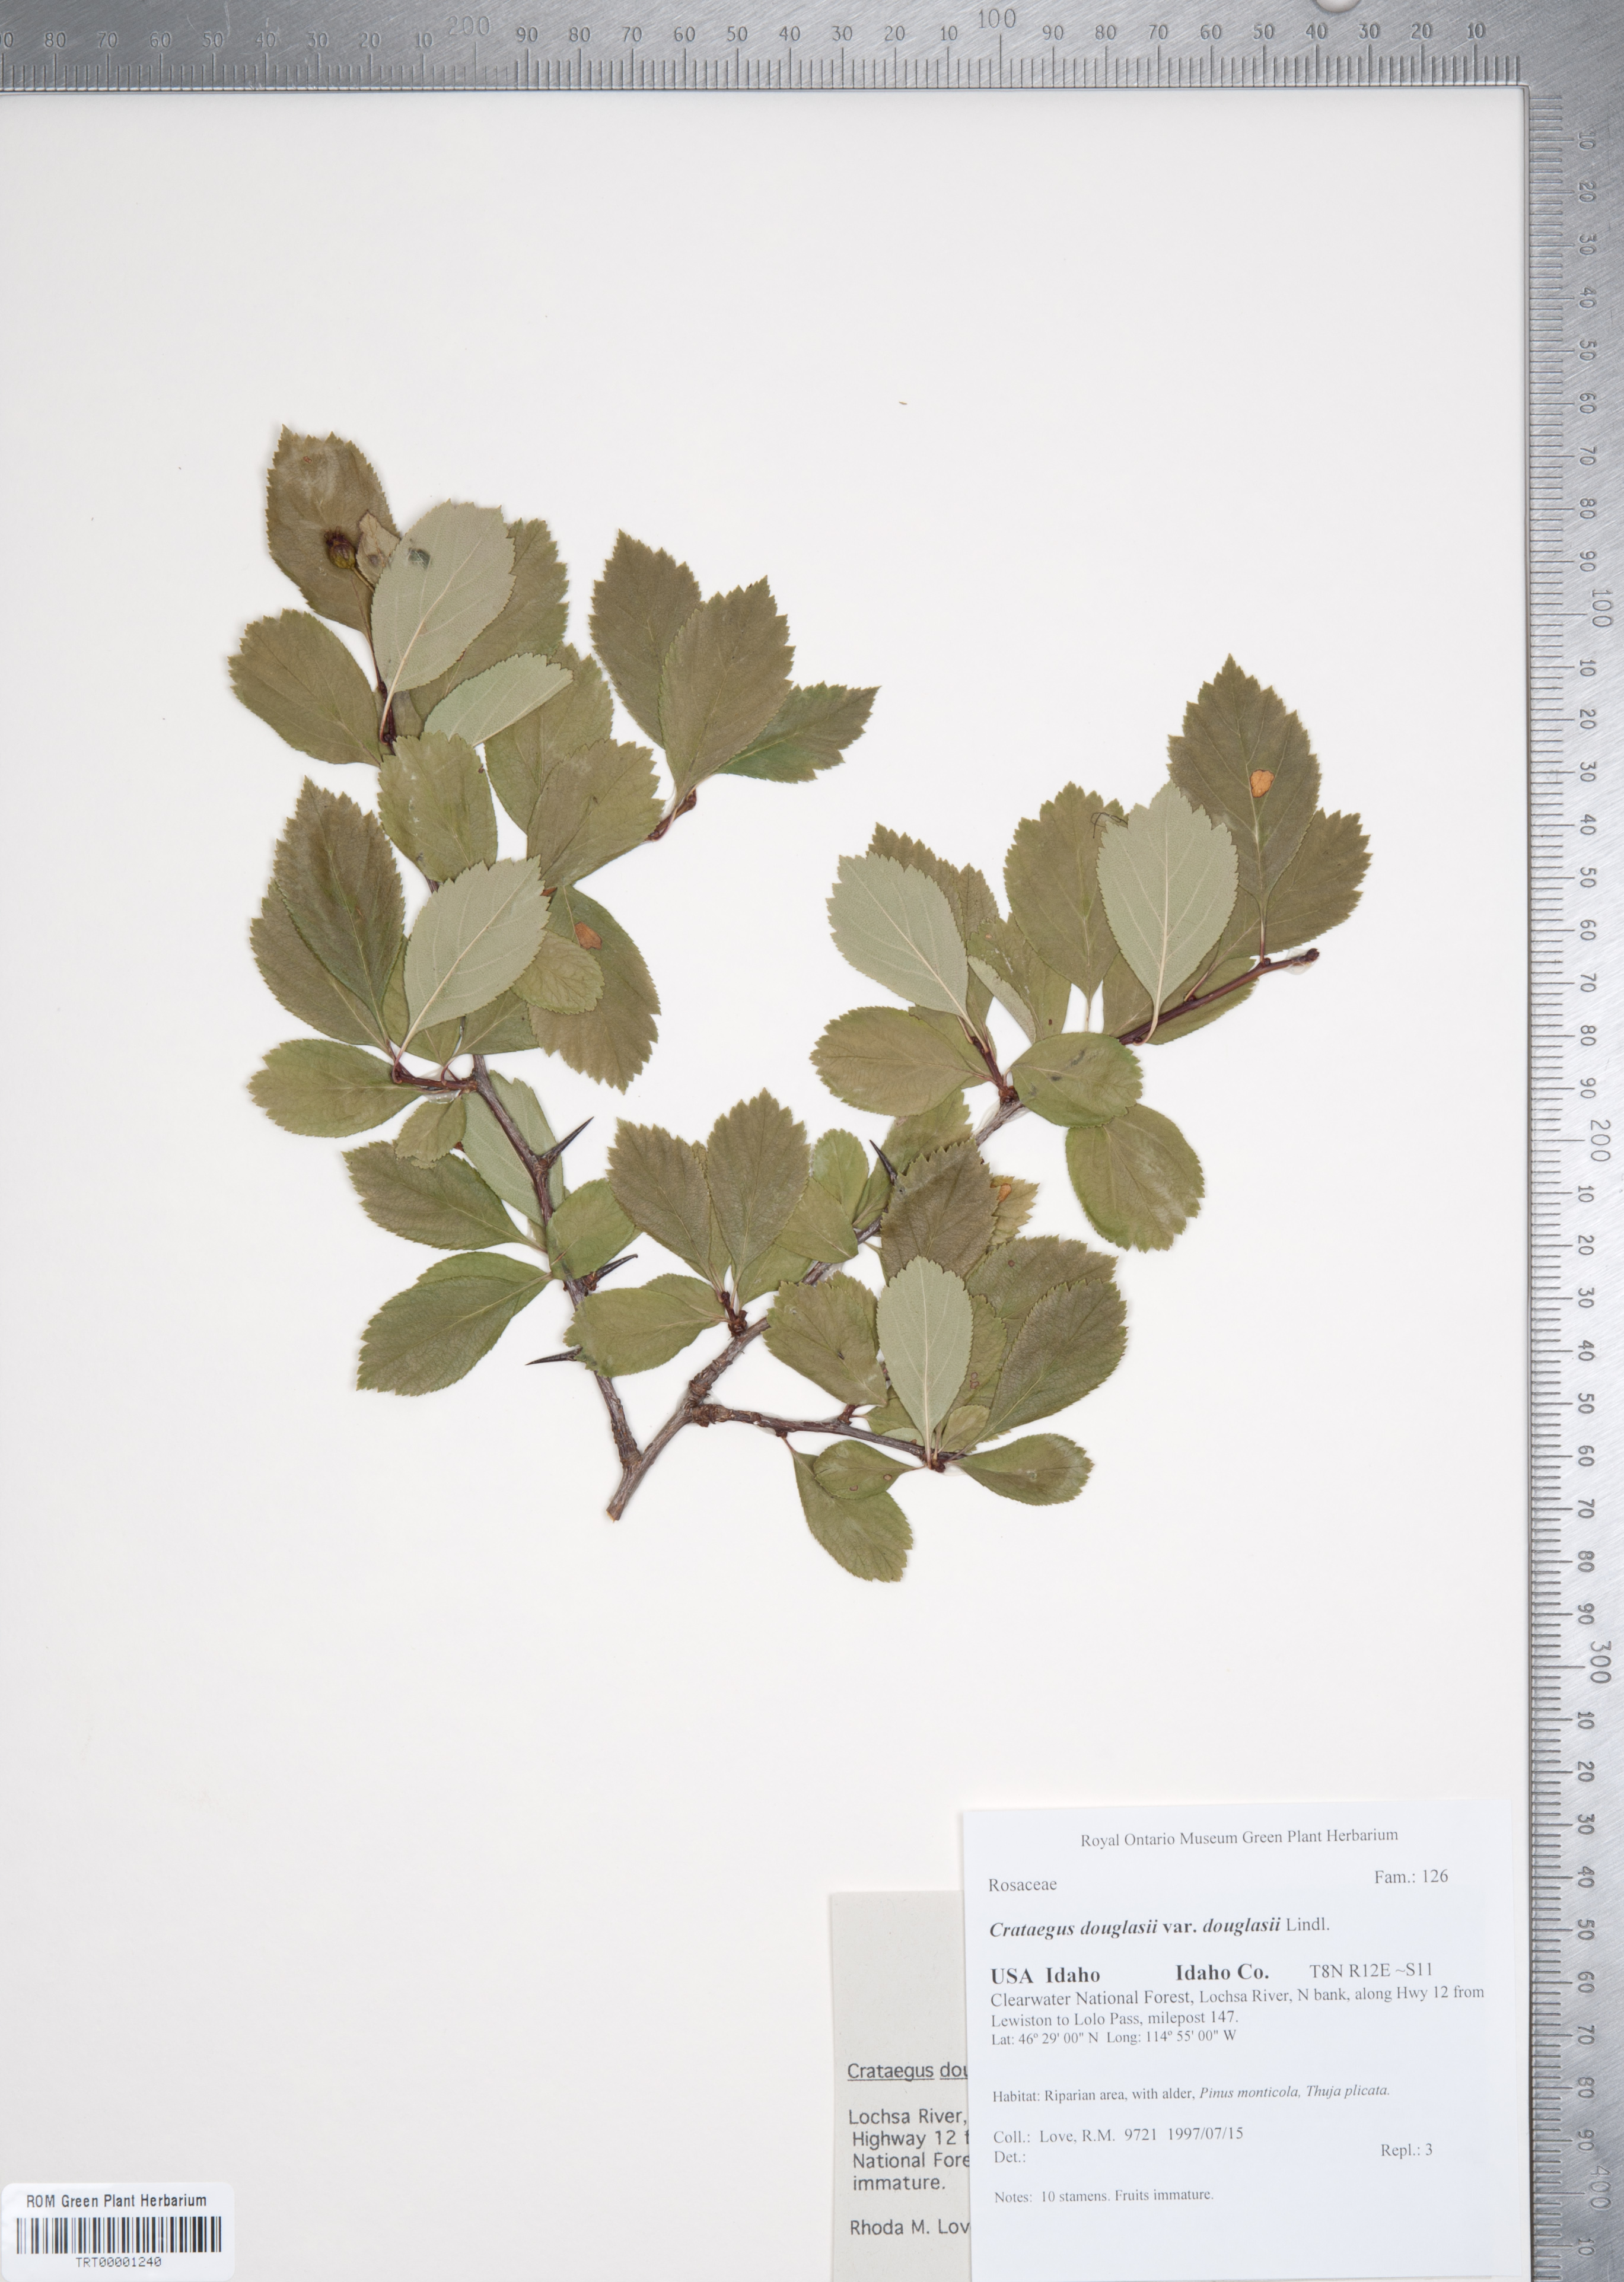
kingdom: Plantae
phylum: Tracheophyta
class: Magnoliopsida
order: Rosales
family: Rosaceae
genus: Crataegus
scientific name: Crataegus douglasii
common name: Black hawthorn
